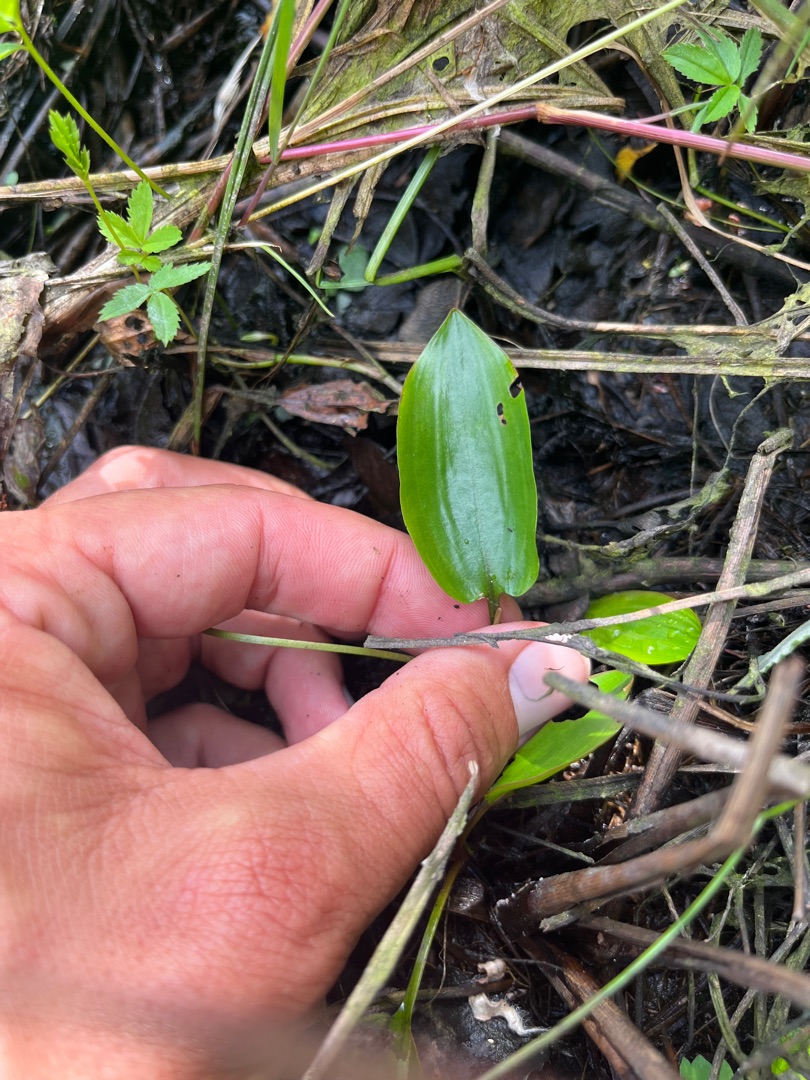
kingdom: Plantae
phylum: Tracheophyta
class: Liliopsida
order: Alismatales
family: Potamogetonaceae
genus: Potamogeton
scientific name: Potamogeton polygonifolius
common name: Aflangbladet vandaks
